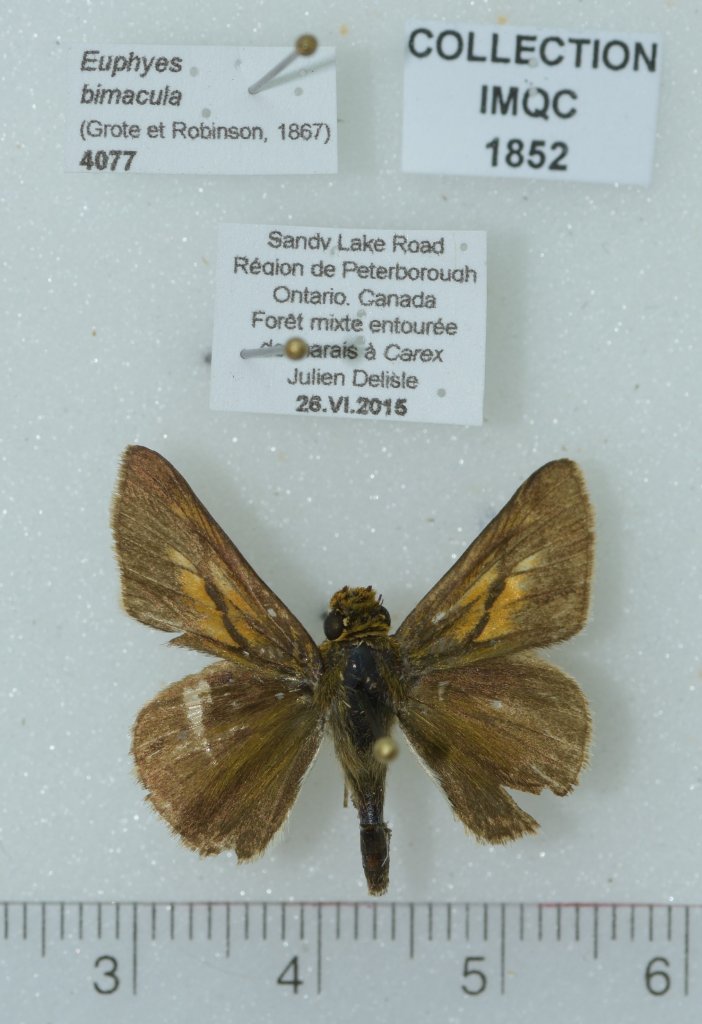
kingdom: Animalia
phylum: Arthropoda
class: Insecta
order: Lepidoptera
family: Hesperiidae
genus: Euphyes
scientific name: Euphyes bimacula
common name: Two-spotted Skipper
